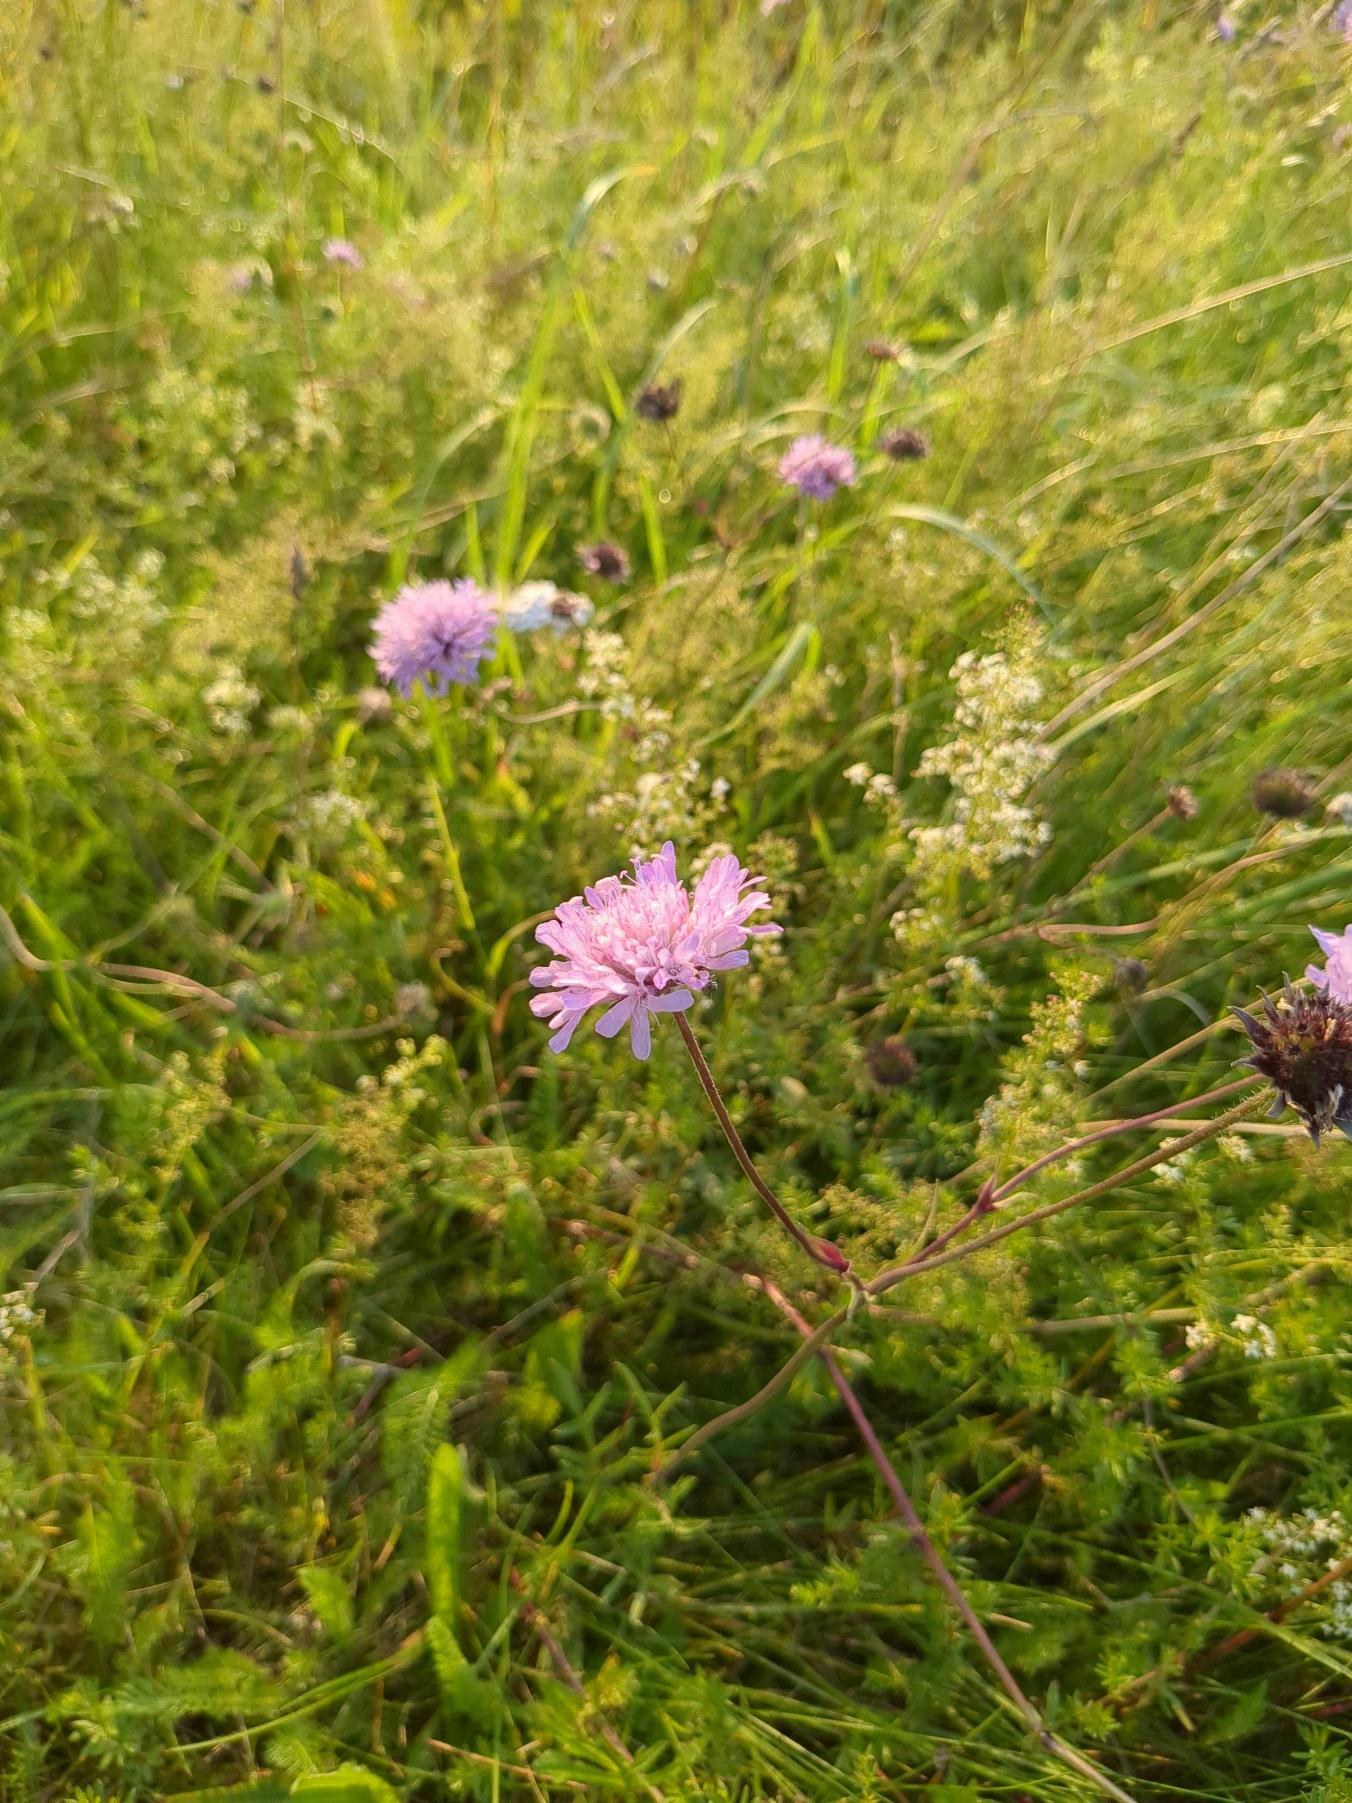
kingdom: Plantae
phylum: Tracheophyta
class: Magnoliopsida
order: Dipsacales
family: Caprifoliaceae
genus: Knautia
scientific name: Knautia arvensis
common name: Blåhat
